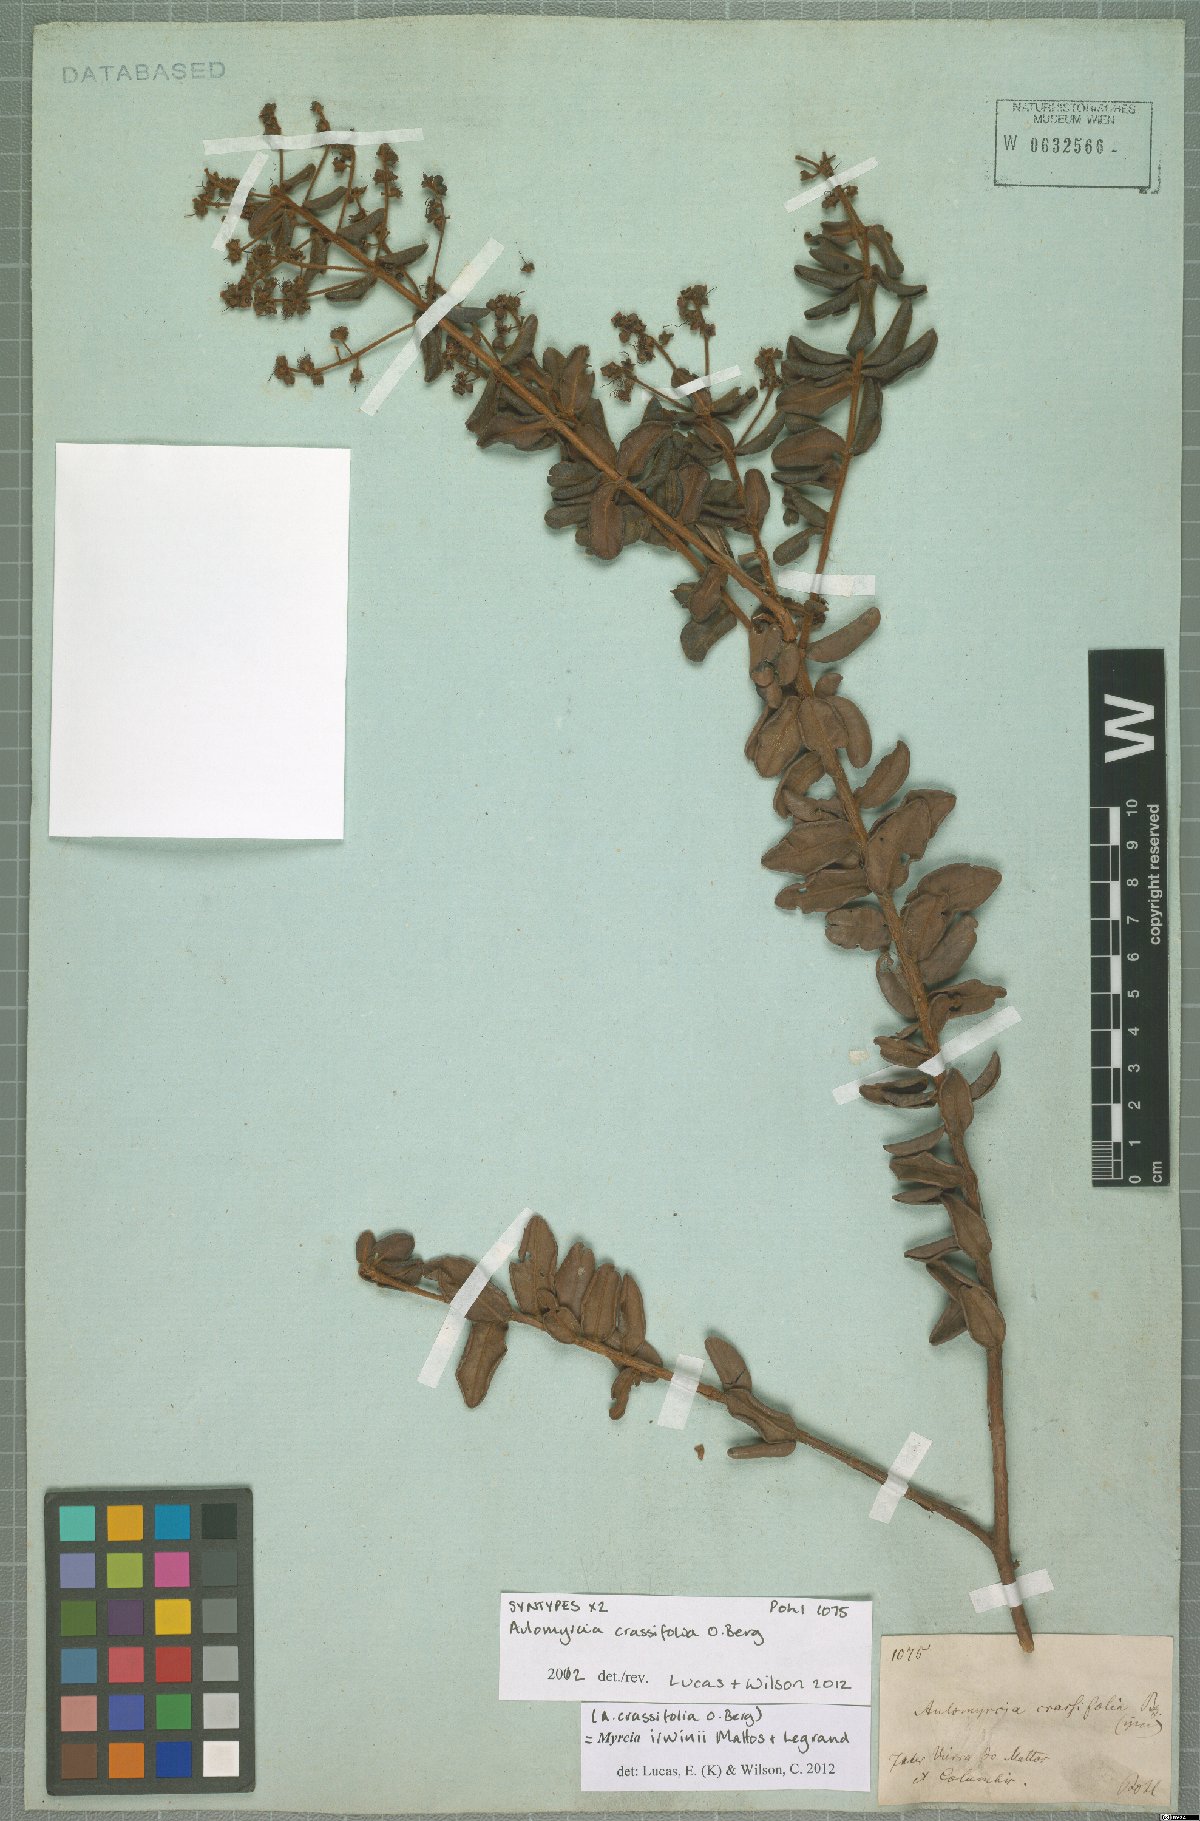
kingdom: Plantae
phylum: Tracheophyta
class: Magnoliopsida
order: Myrtales
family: Myrtaceae
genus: Myrcia
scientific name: Myrcia rufipes
